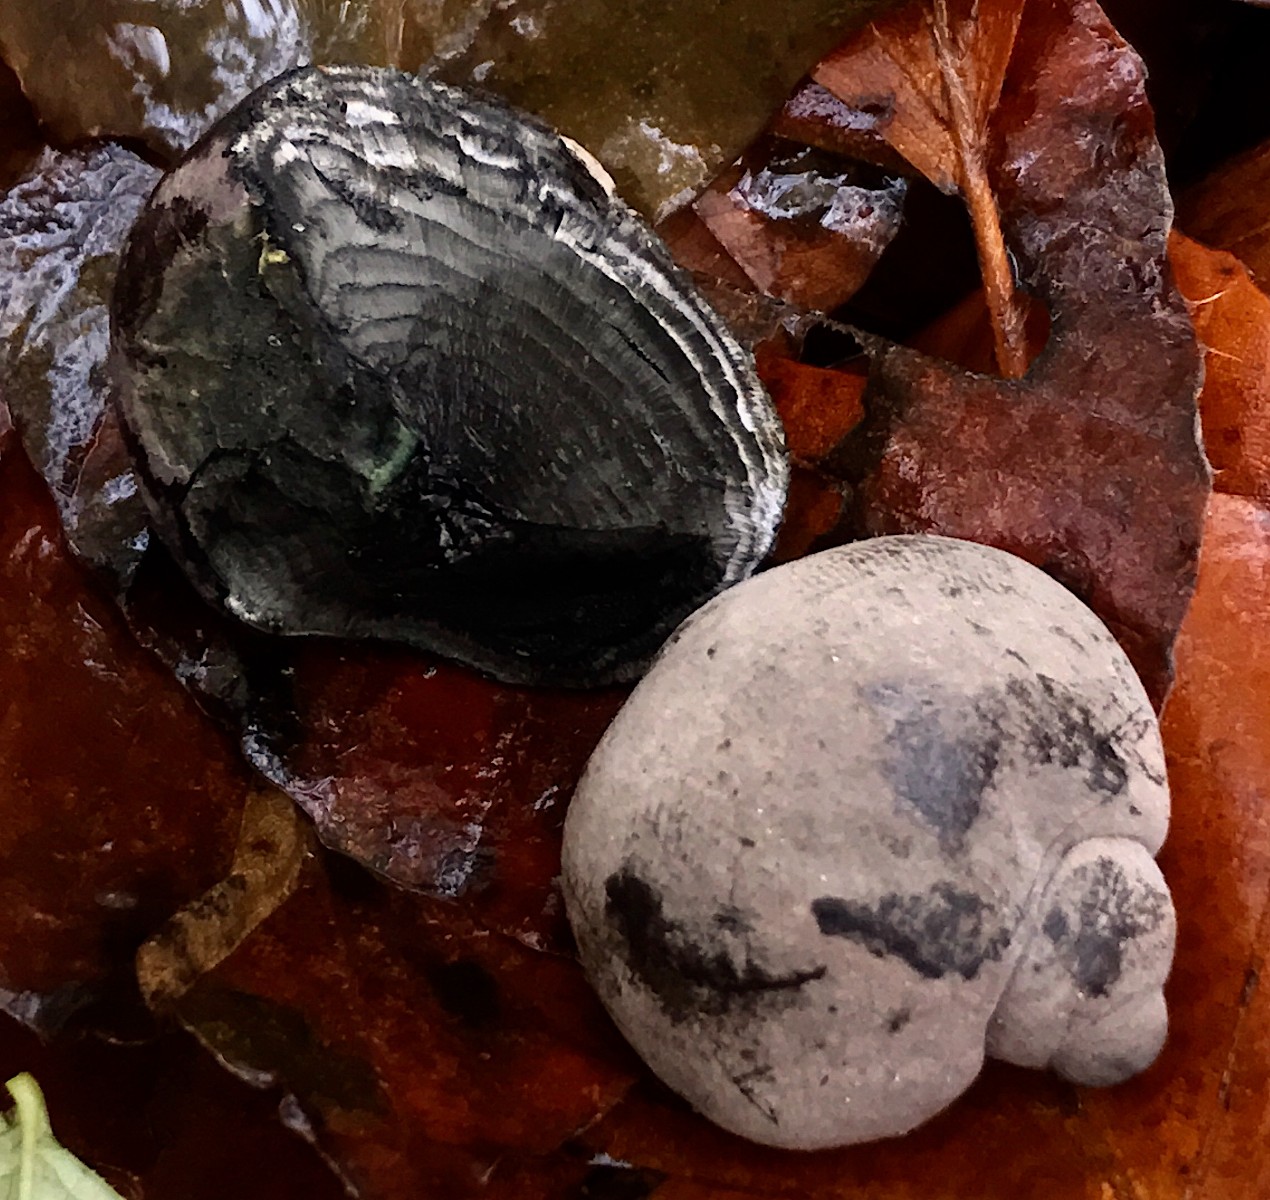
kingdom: Fungi
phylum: Ascomycota
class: Sordariomycetes
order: Xylariales
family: Hypoxylaceae
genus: Daldinia
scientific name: Daldinia concentrica
